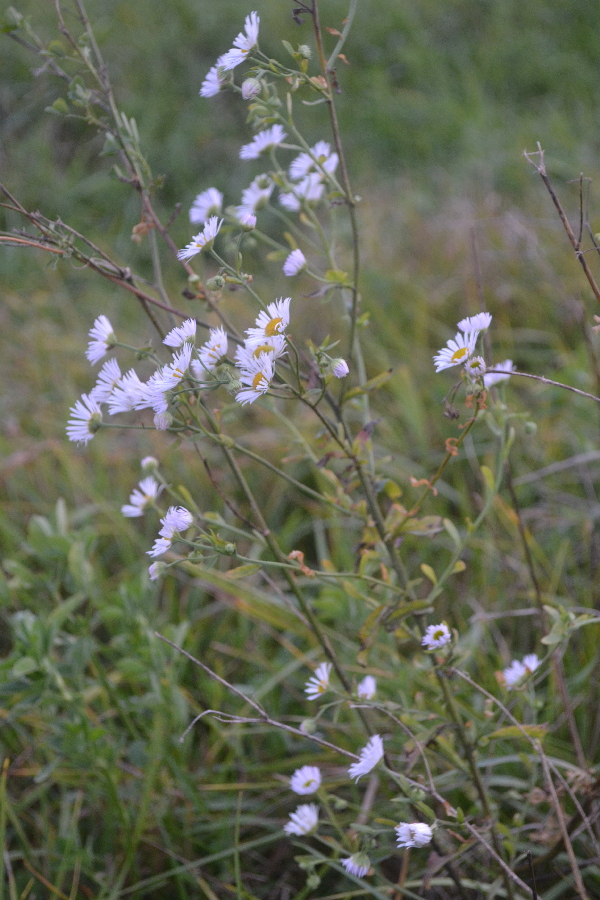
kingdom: Plantae
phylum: Tracheophyta
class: Magnoliopsida
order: Asterales
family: Asteraceae
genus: Erigeron
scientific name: Erigeron annuus
